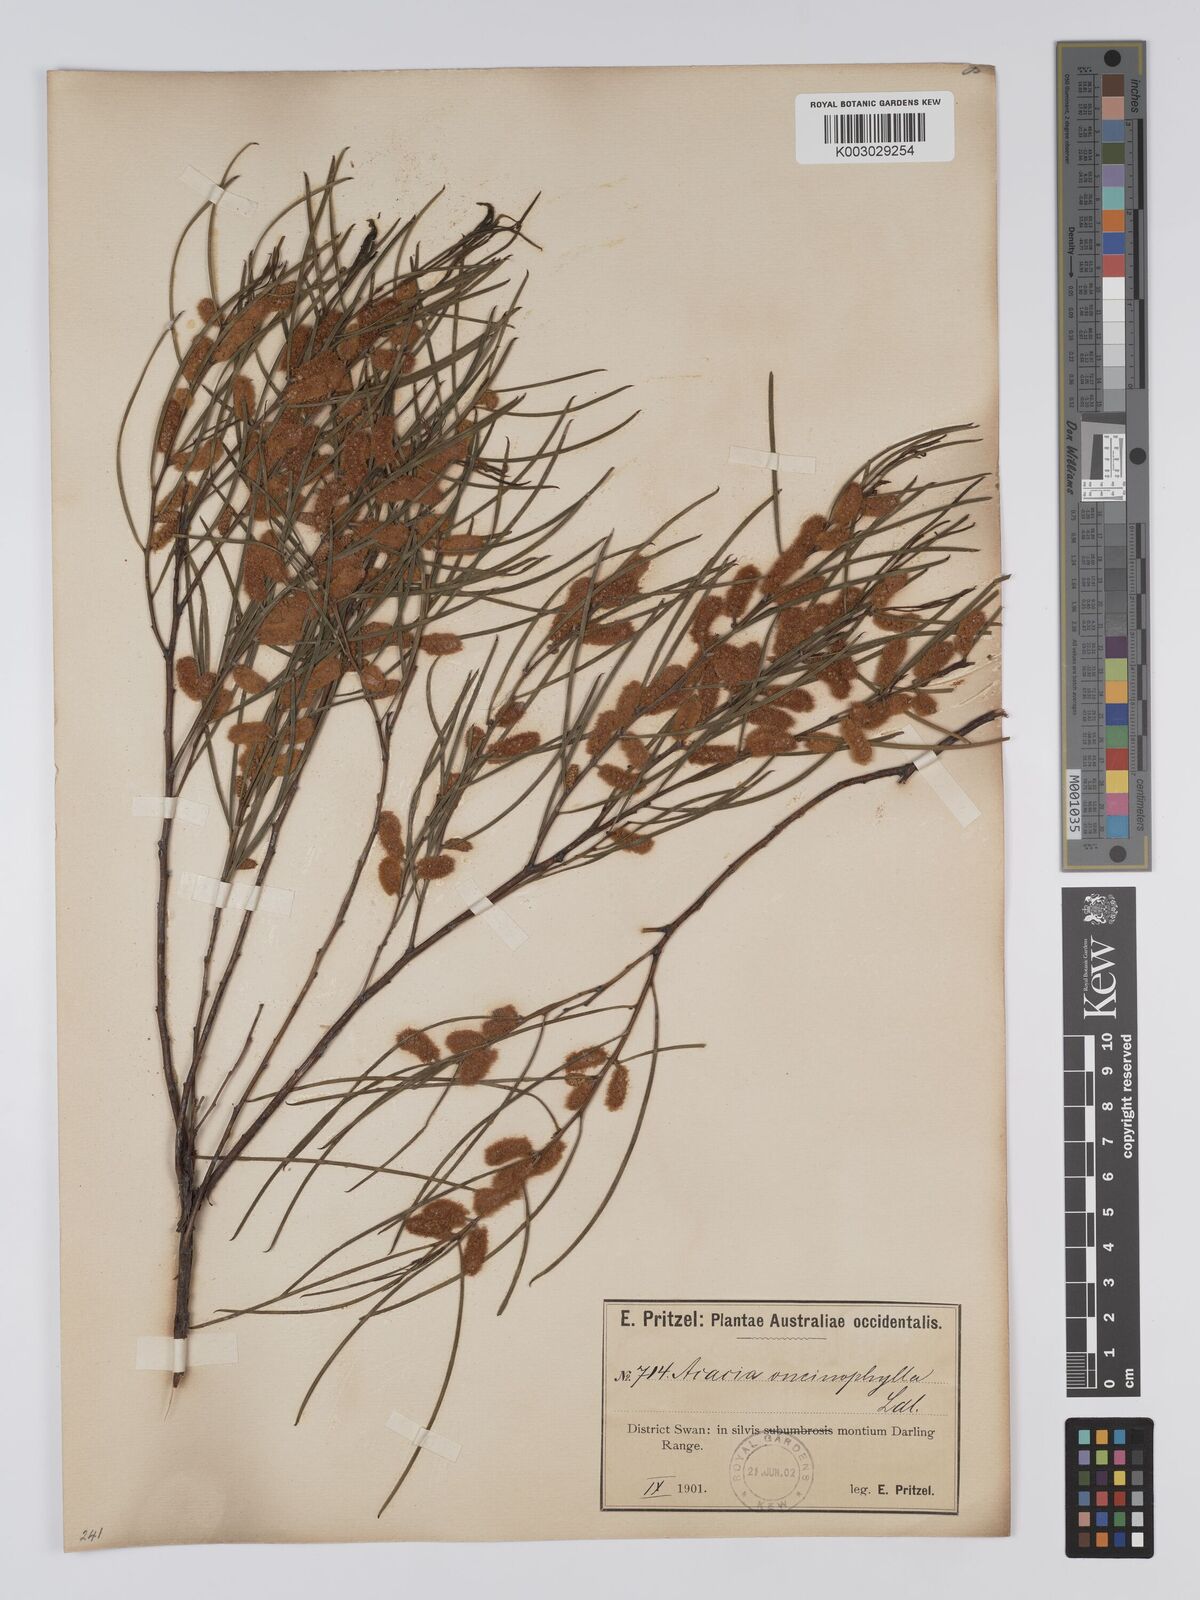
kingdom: Plantae
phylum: Tracheophyta
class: Magnoliopsida
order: Fabales
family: Fabaceae
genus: Acacia
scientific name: Acacia oncinophylla
